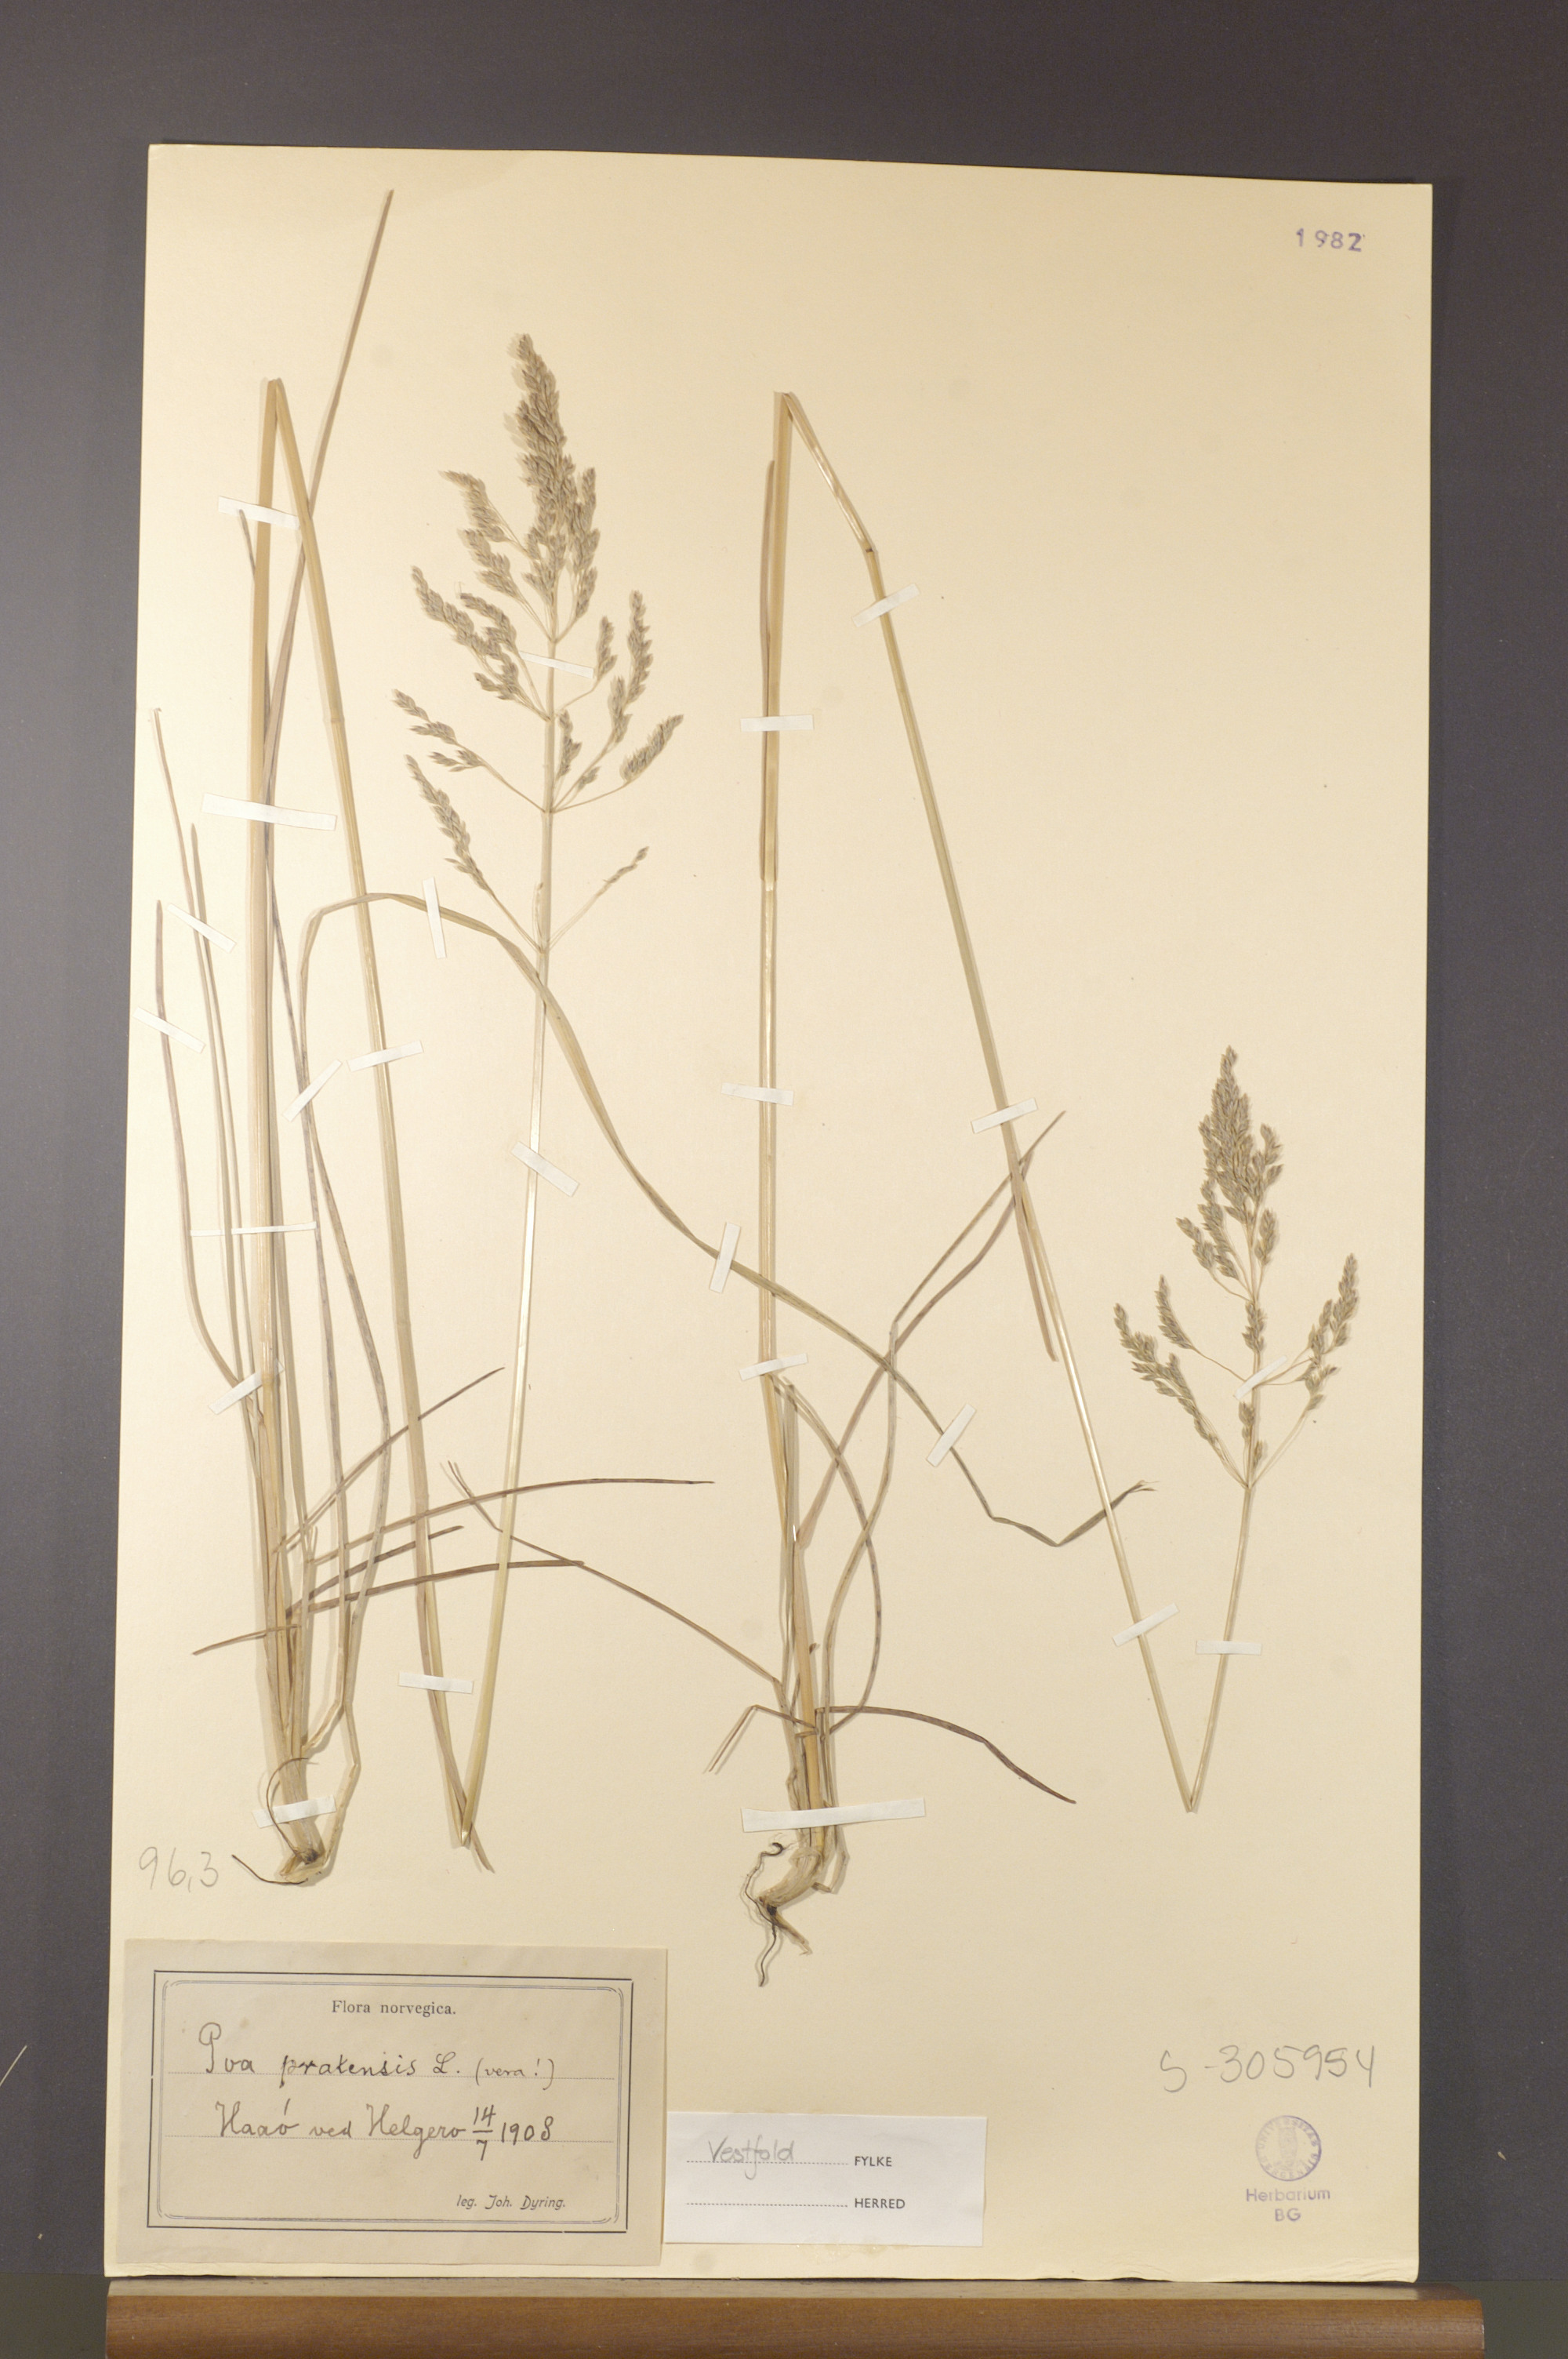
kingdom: Plantae
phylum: Tracheophyta
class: Liliopsida
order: Poales
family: Poaceae
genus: Poa
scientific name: Poa pratensis
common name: Kentucky bluegrass
